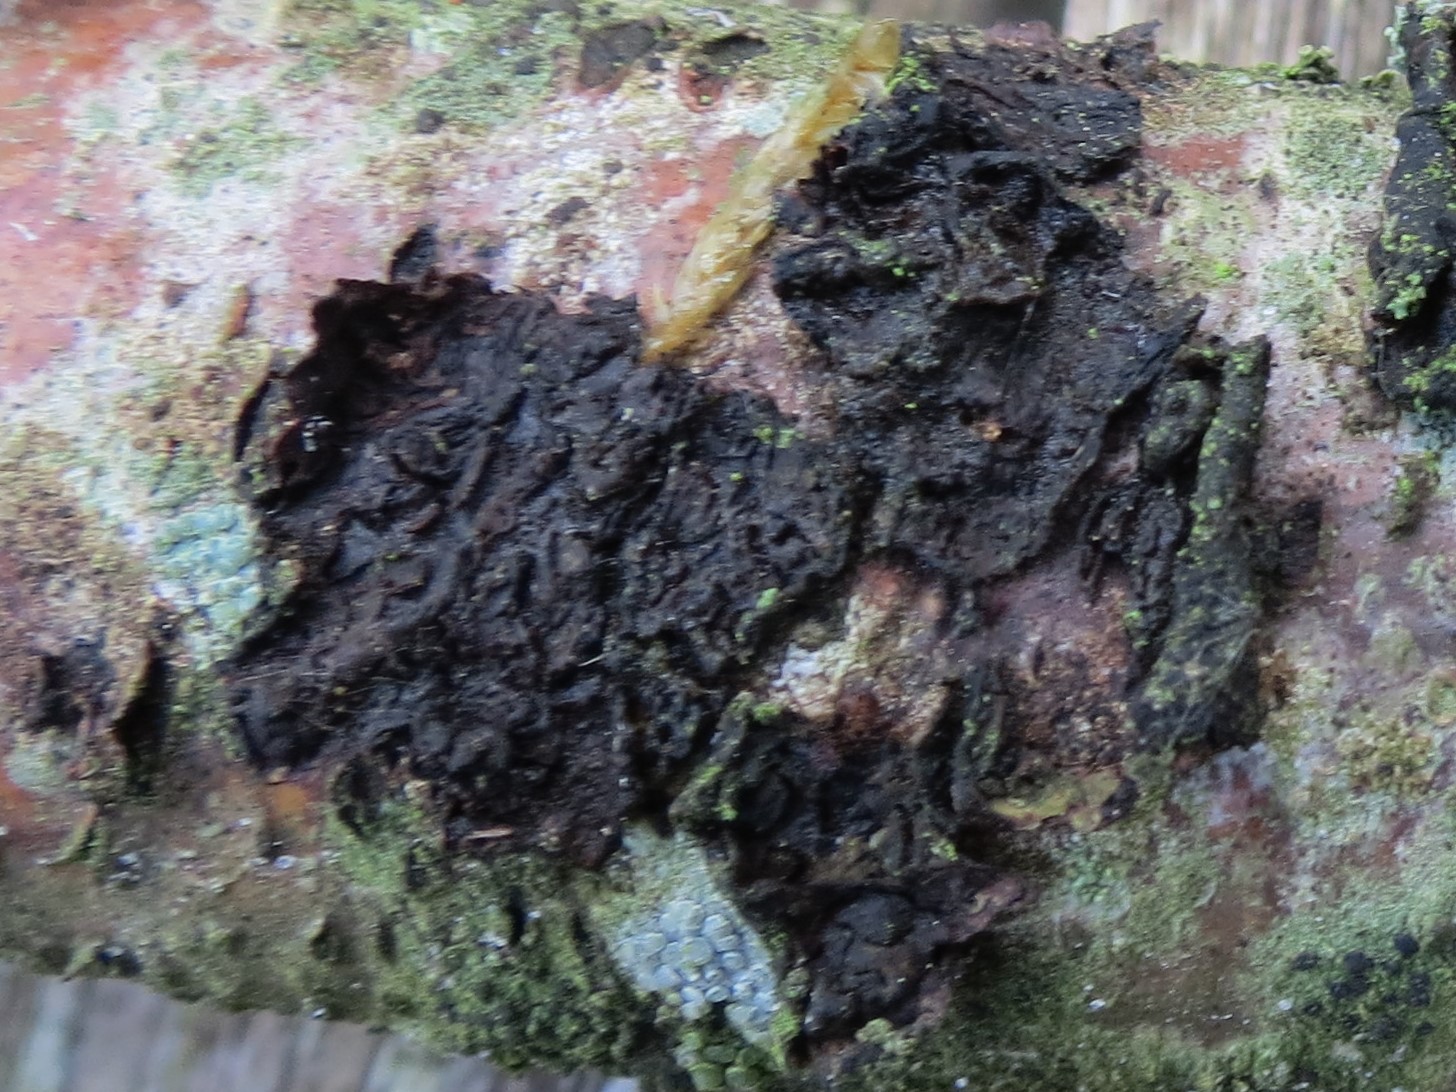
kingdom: Fungi
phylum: Basidiomycota
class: Agaricomycetes
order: Russulales
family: Peniophoraceae
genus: Peniophora
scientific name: Peniophora quercina
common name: ege-voksskind
